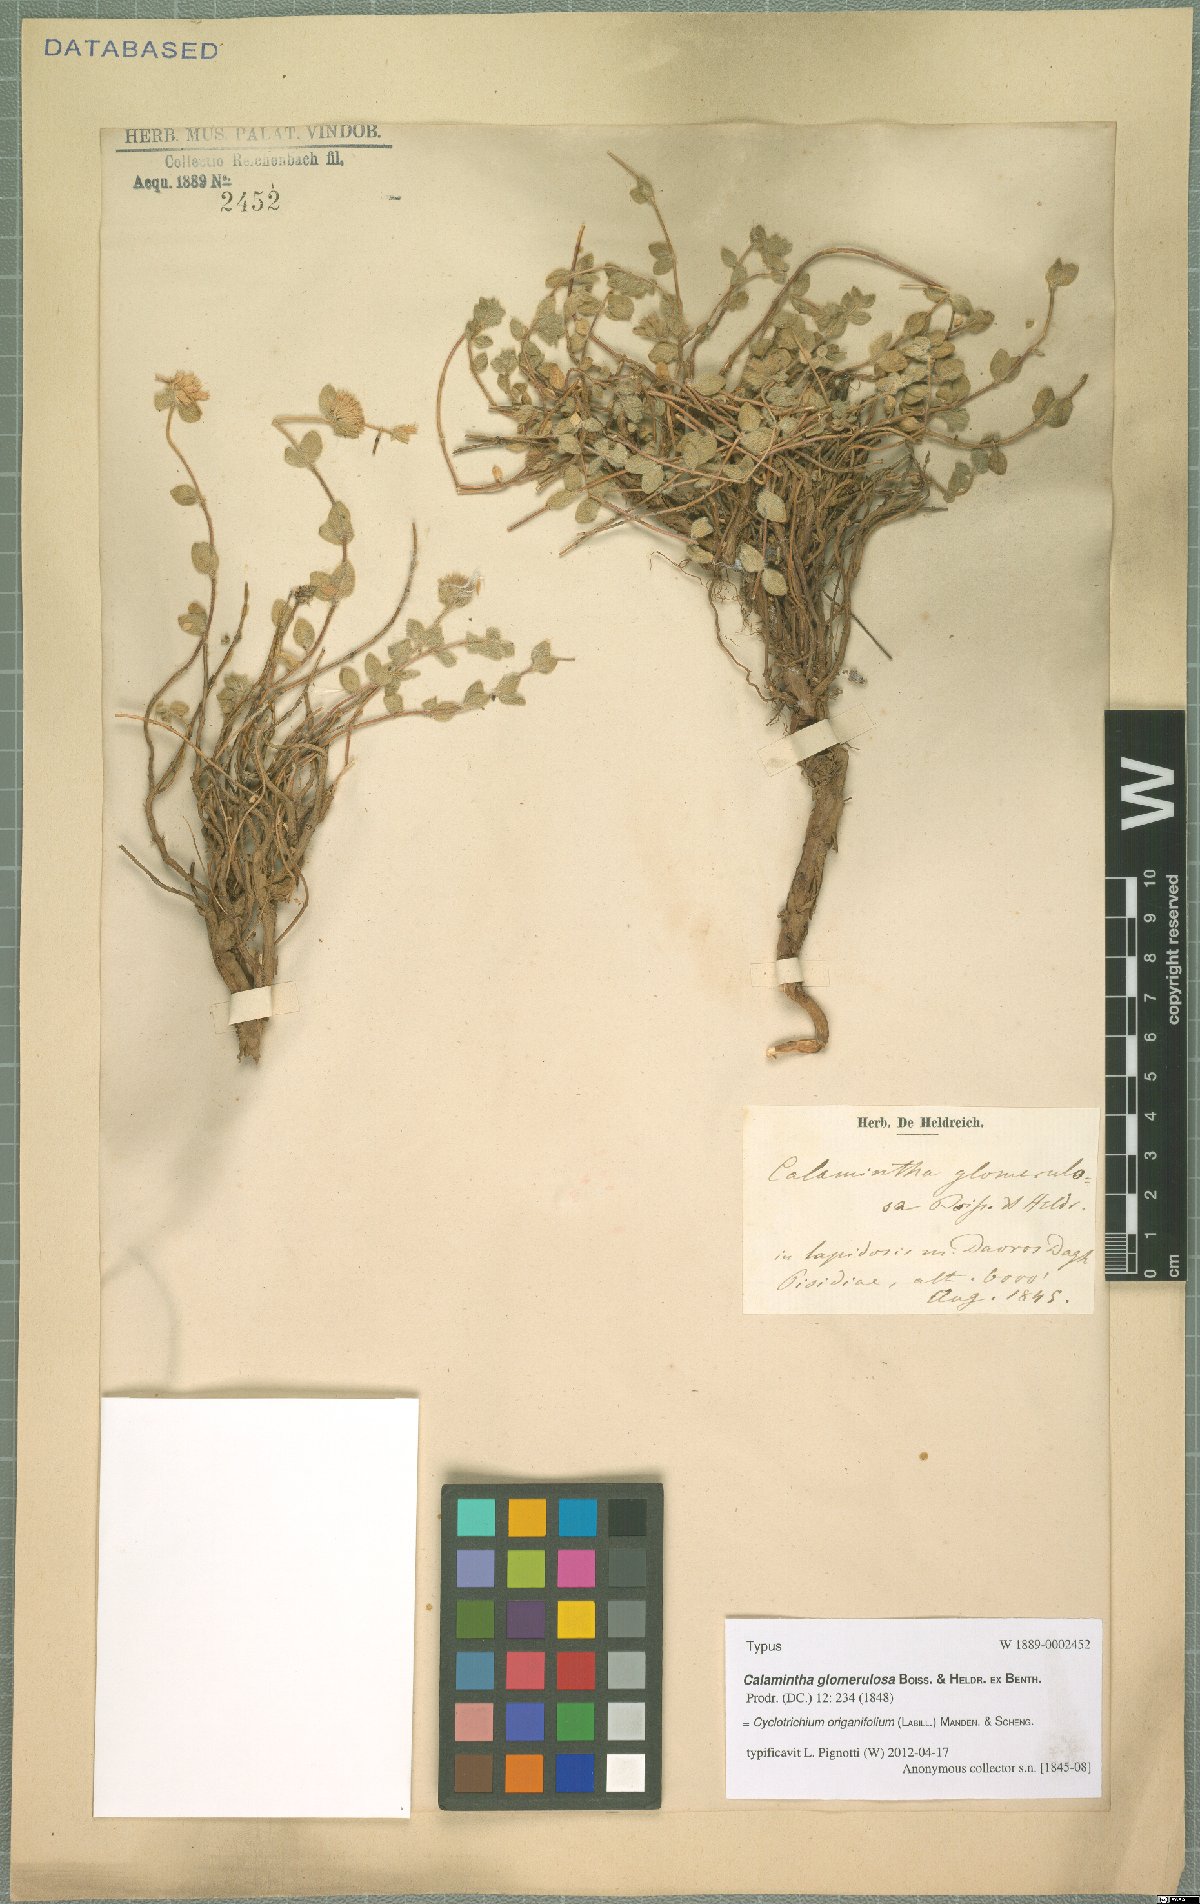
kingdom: Plantae
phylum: Tracheophyta
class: Magnoliopsida
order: Lamiales
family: Lamiaceae
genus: Cyclotrichium
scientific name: Cyclotrichium origanifolium
